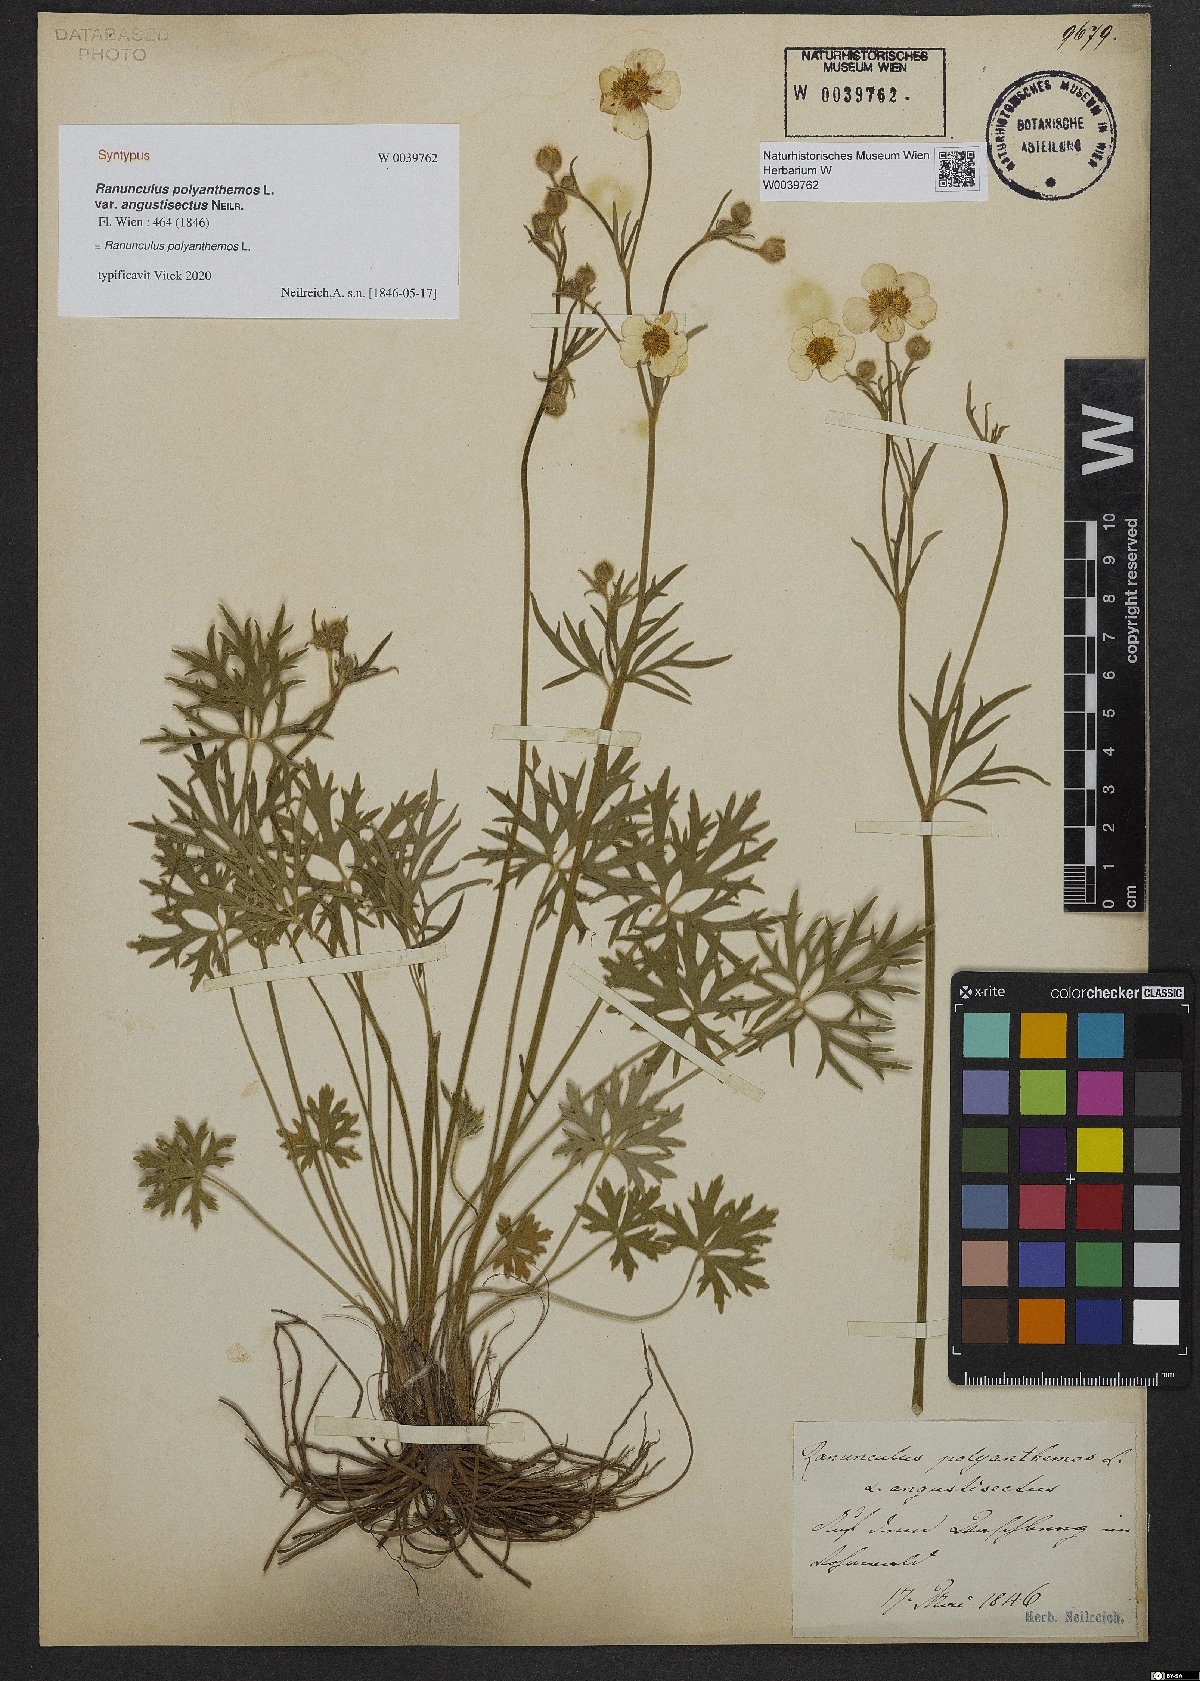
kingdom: Plantae
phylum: Tracheophyta
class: Magnoliopsida
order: Ranunculales
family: Ranunculaceae
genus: Ranunculus
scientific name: Ranunculus polyanthemos
